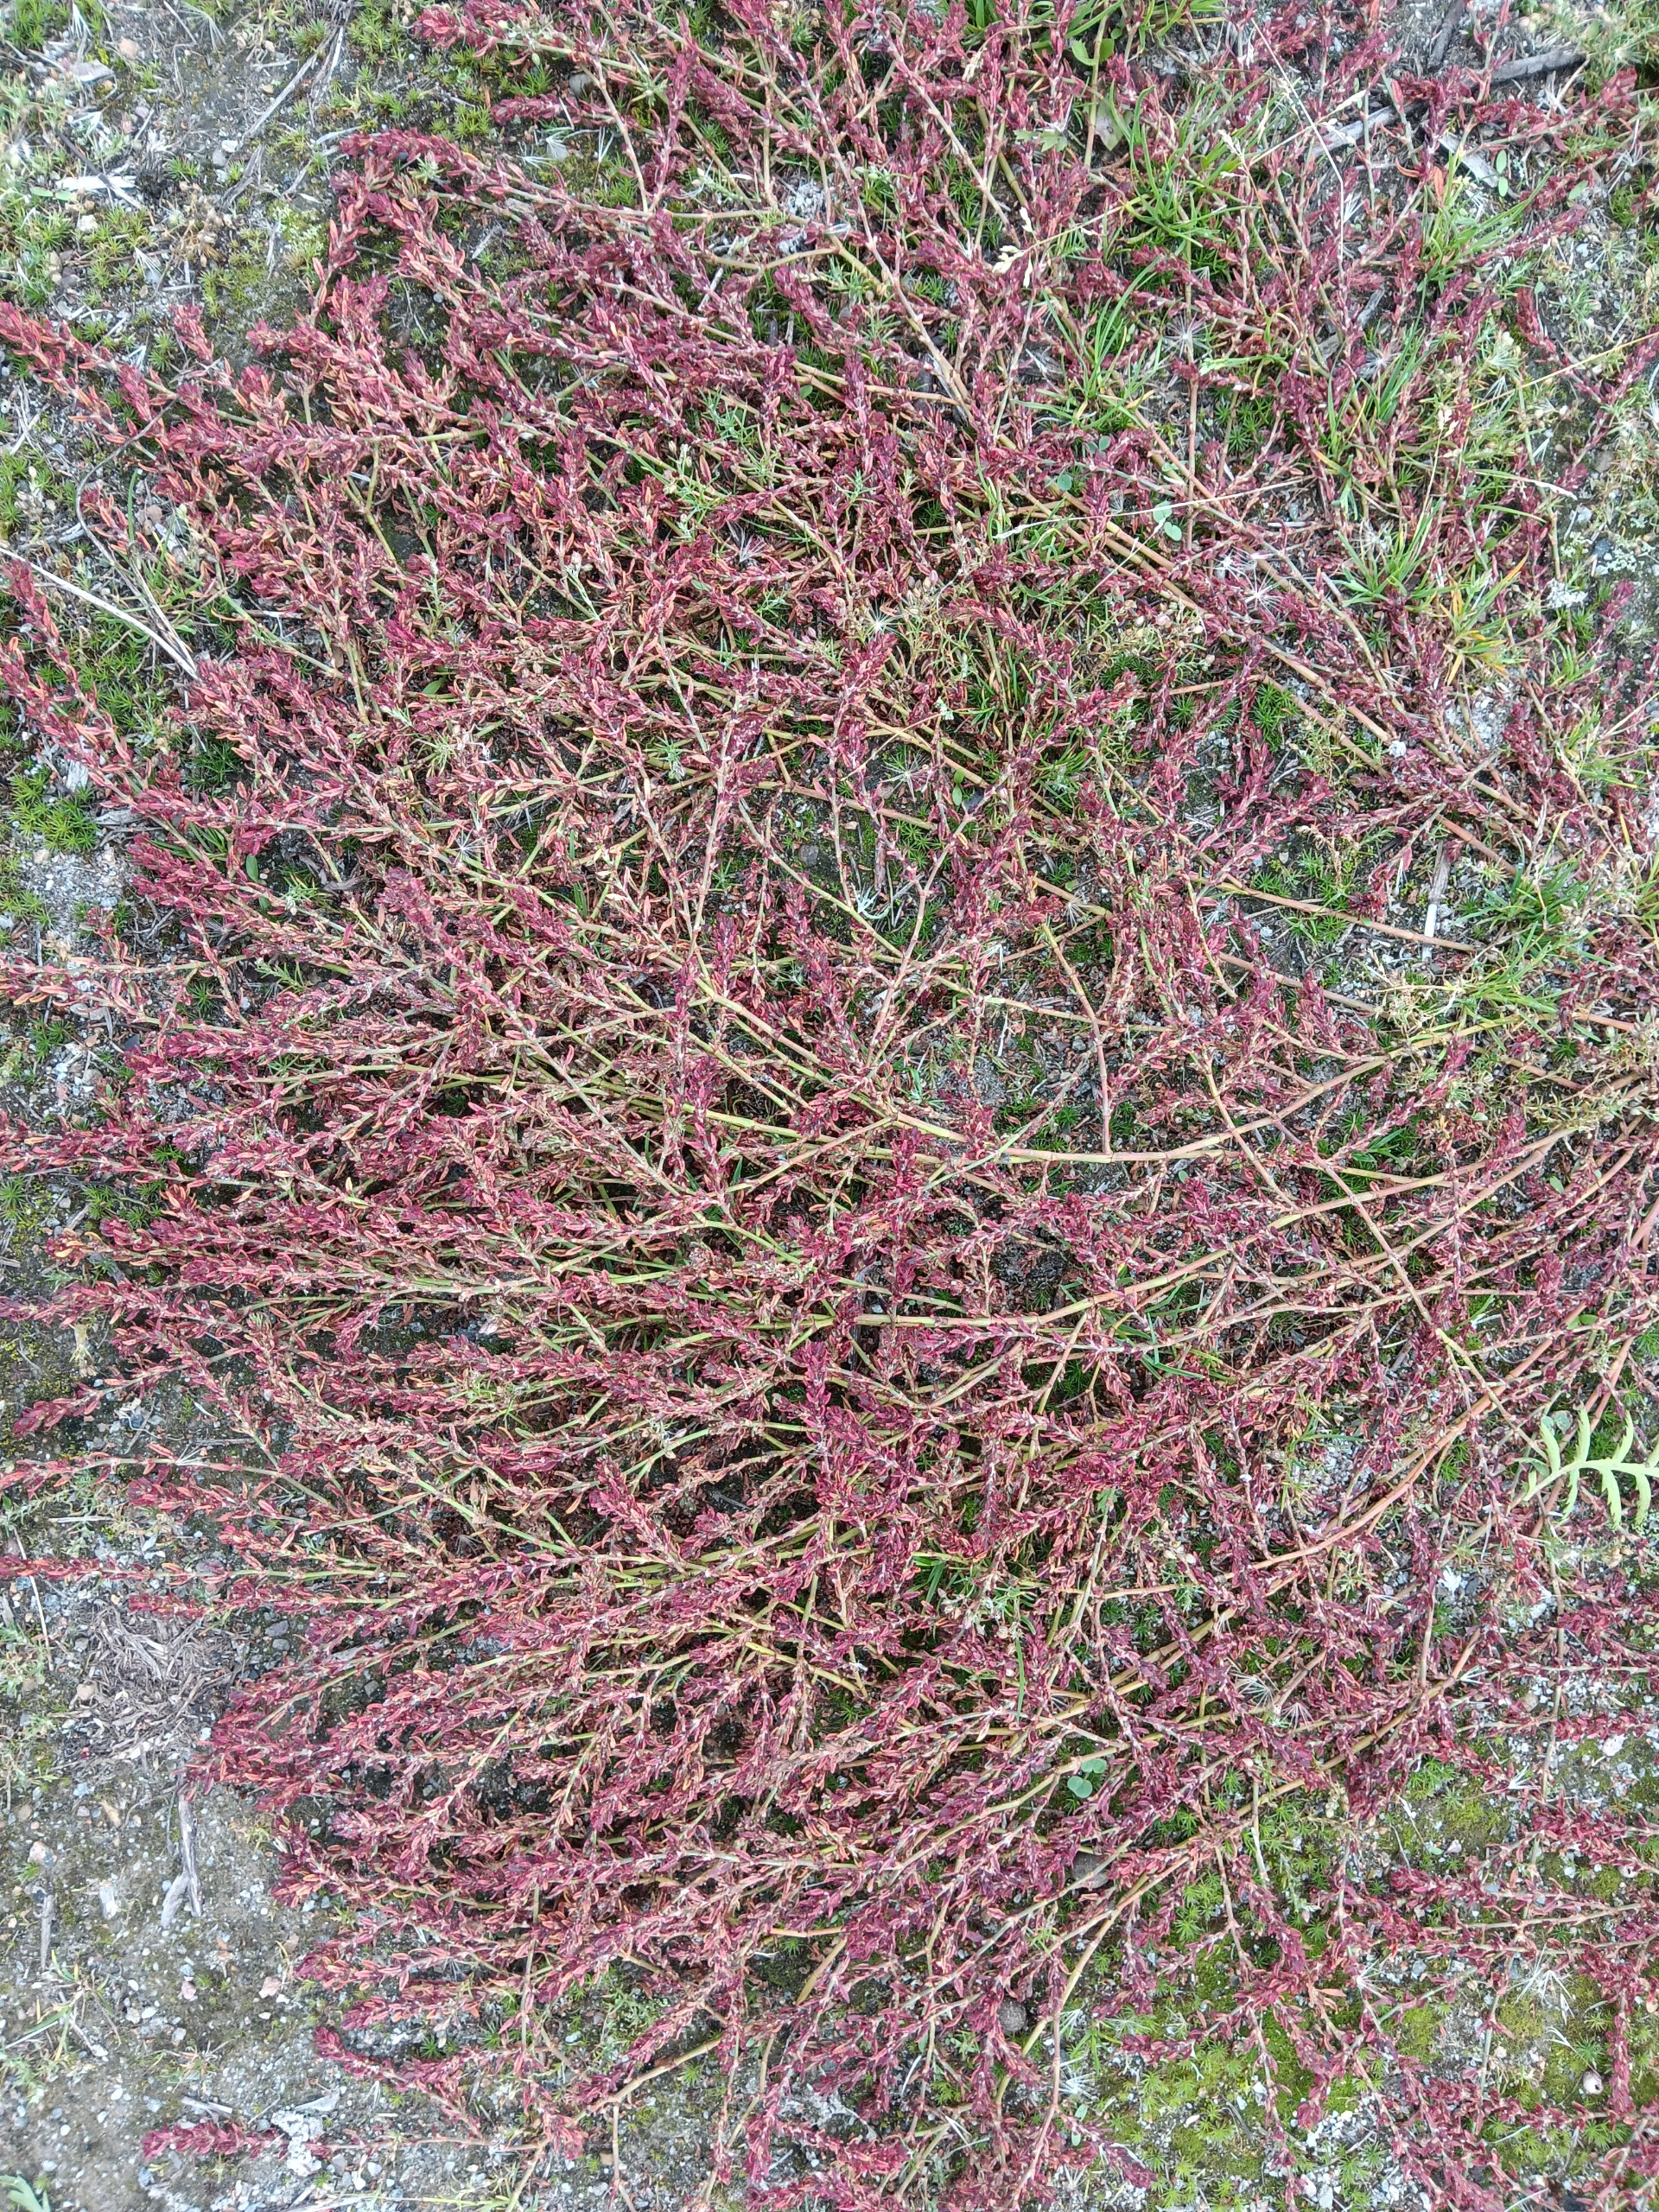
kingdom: Plantae
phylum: Tracheophyta
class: Magnoliopsida
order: Caryophyllales
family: Polygonaceae
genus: Polygonum
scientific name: Polygonum aviculare
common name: Vej-pileurt
